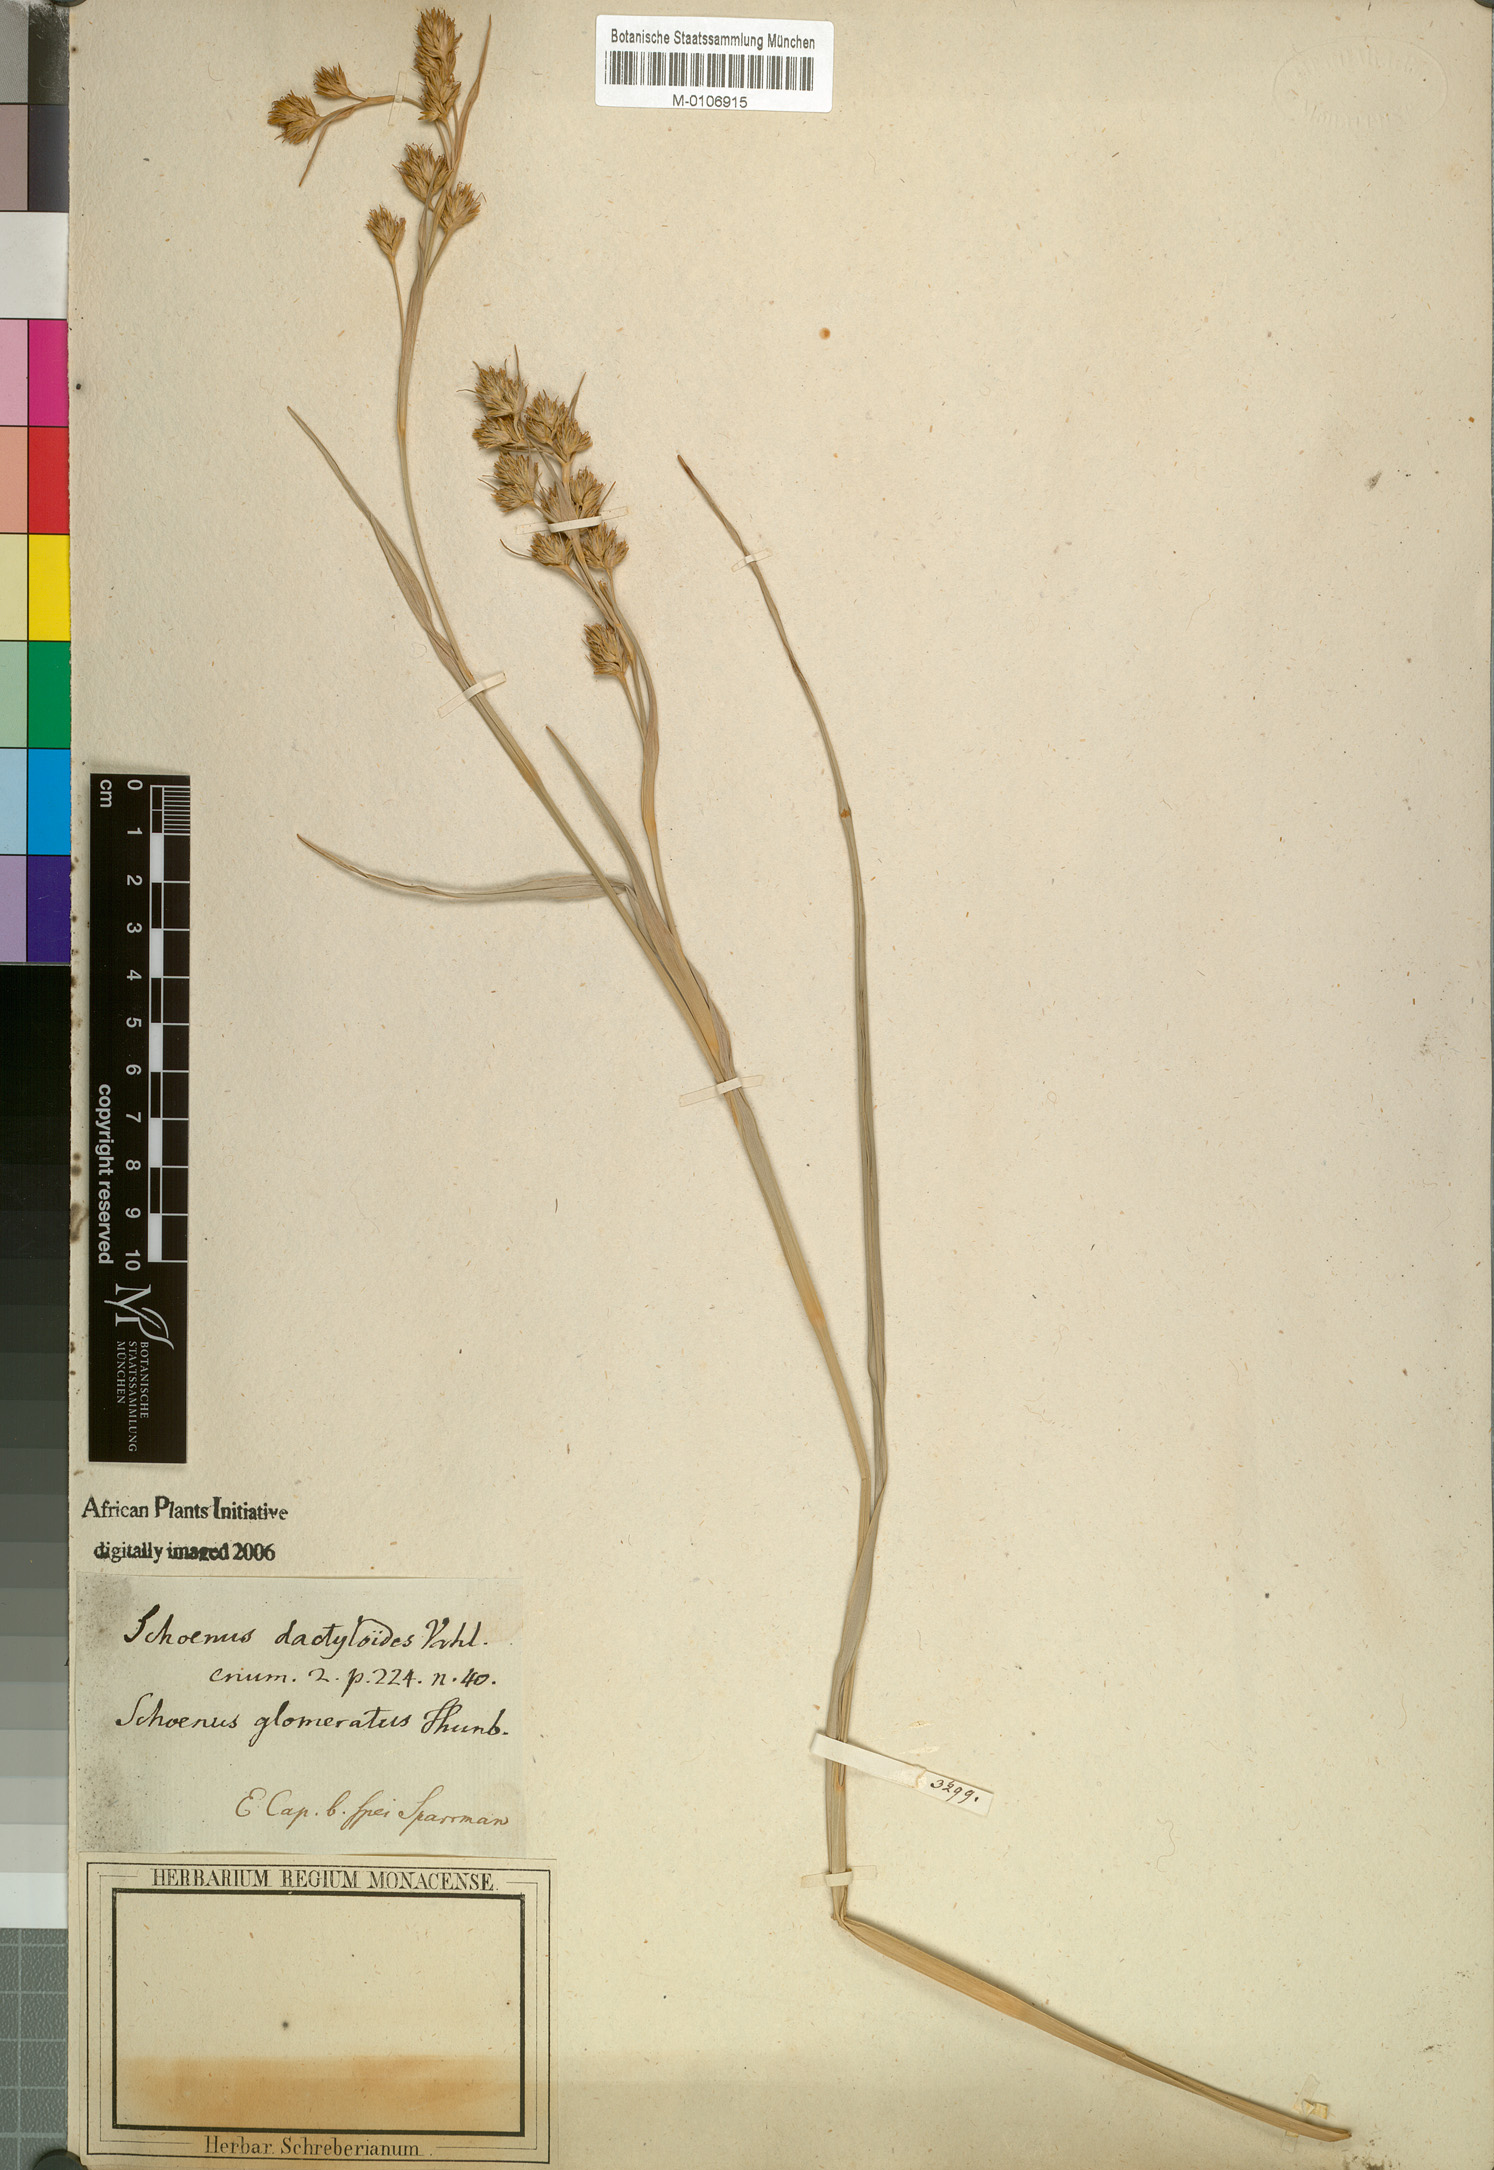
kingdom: Plantae
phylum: Tracheophyta
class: Liliopsida
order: Poales
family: Cyperaceae
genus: Carpha
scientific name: Carpha glomerata
